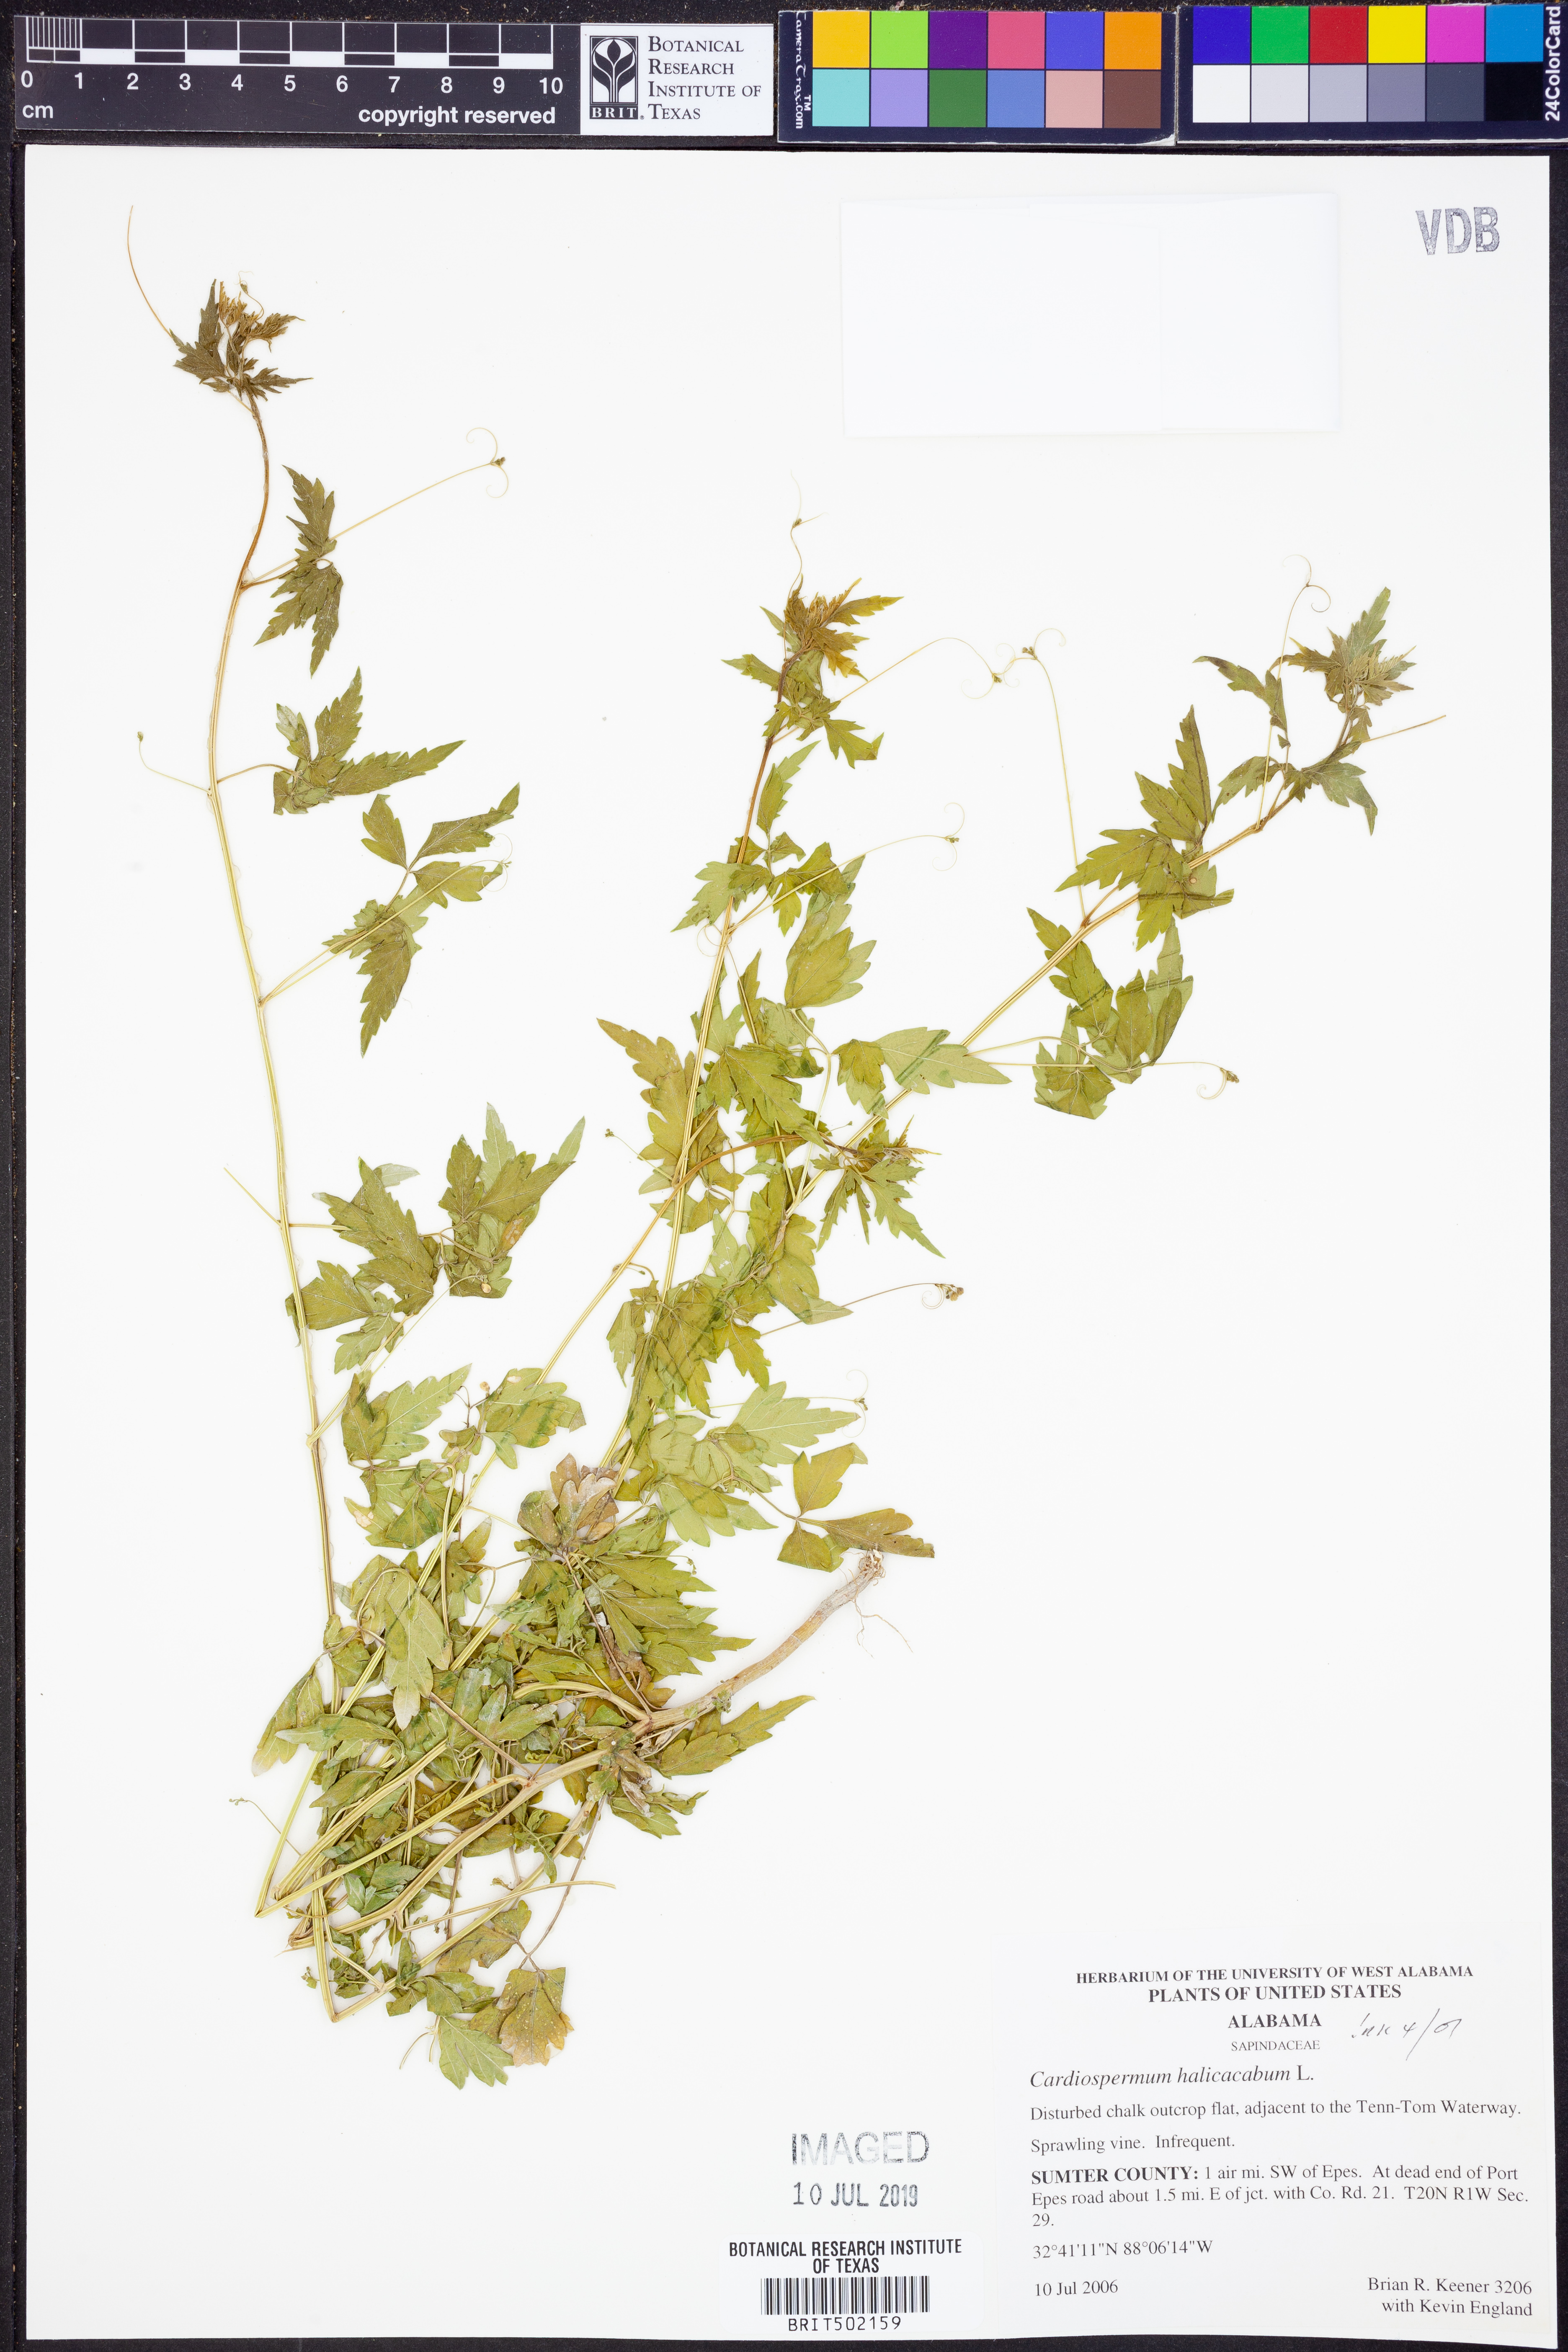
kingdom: Plantae
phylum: Tracheophyta
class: Magnoliopsida
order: Sapindales
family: Sapindaceae
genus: Cardiospermum
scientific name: Cardiospermum halicacabum
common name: Balloon vine
